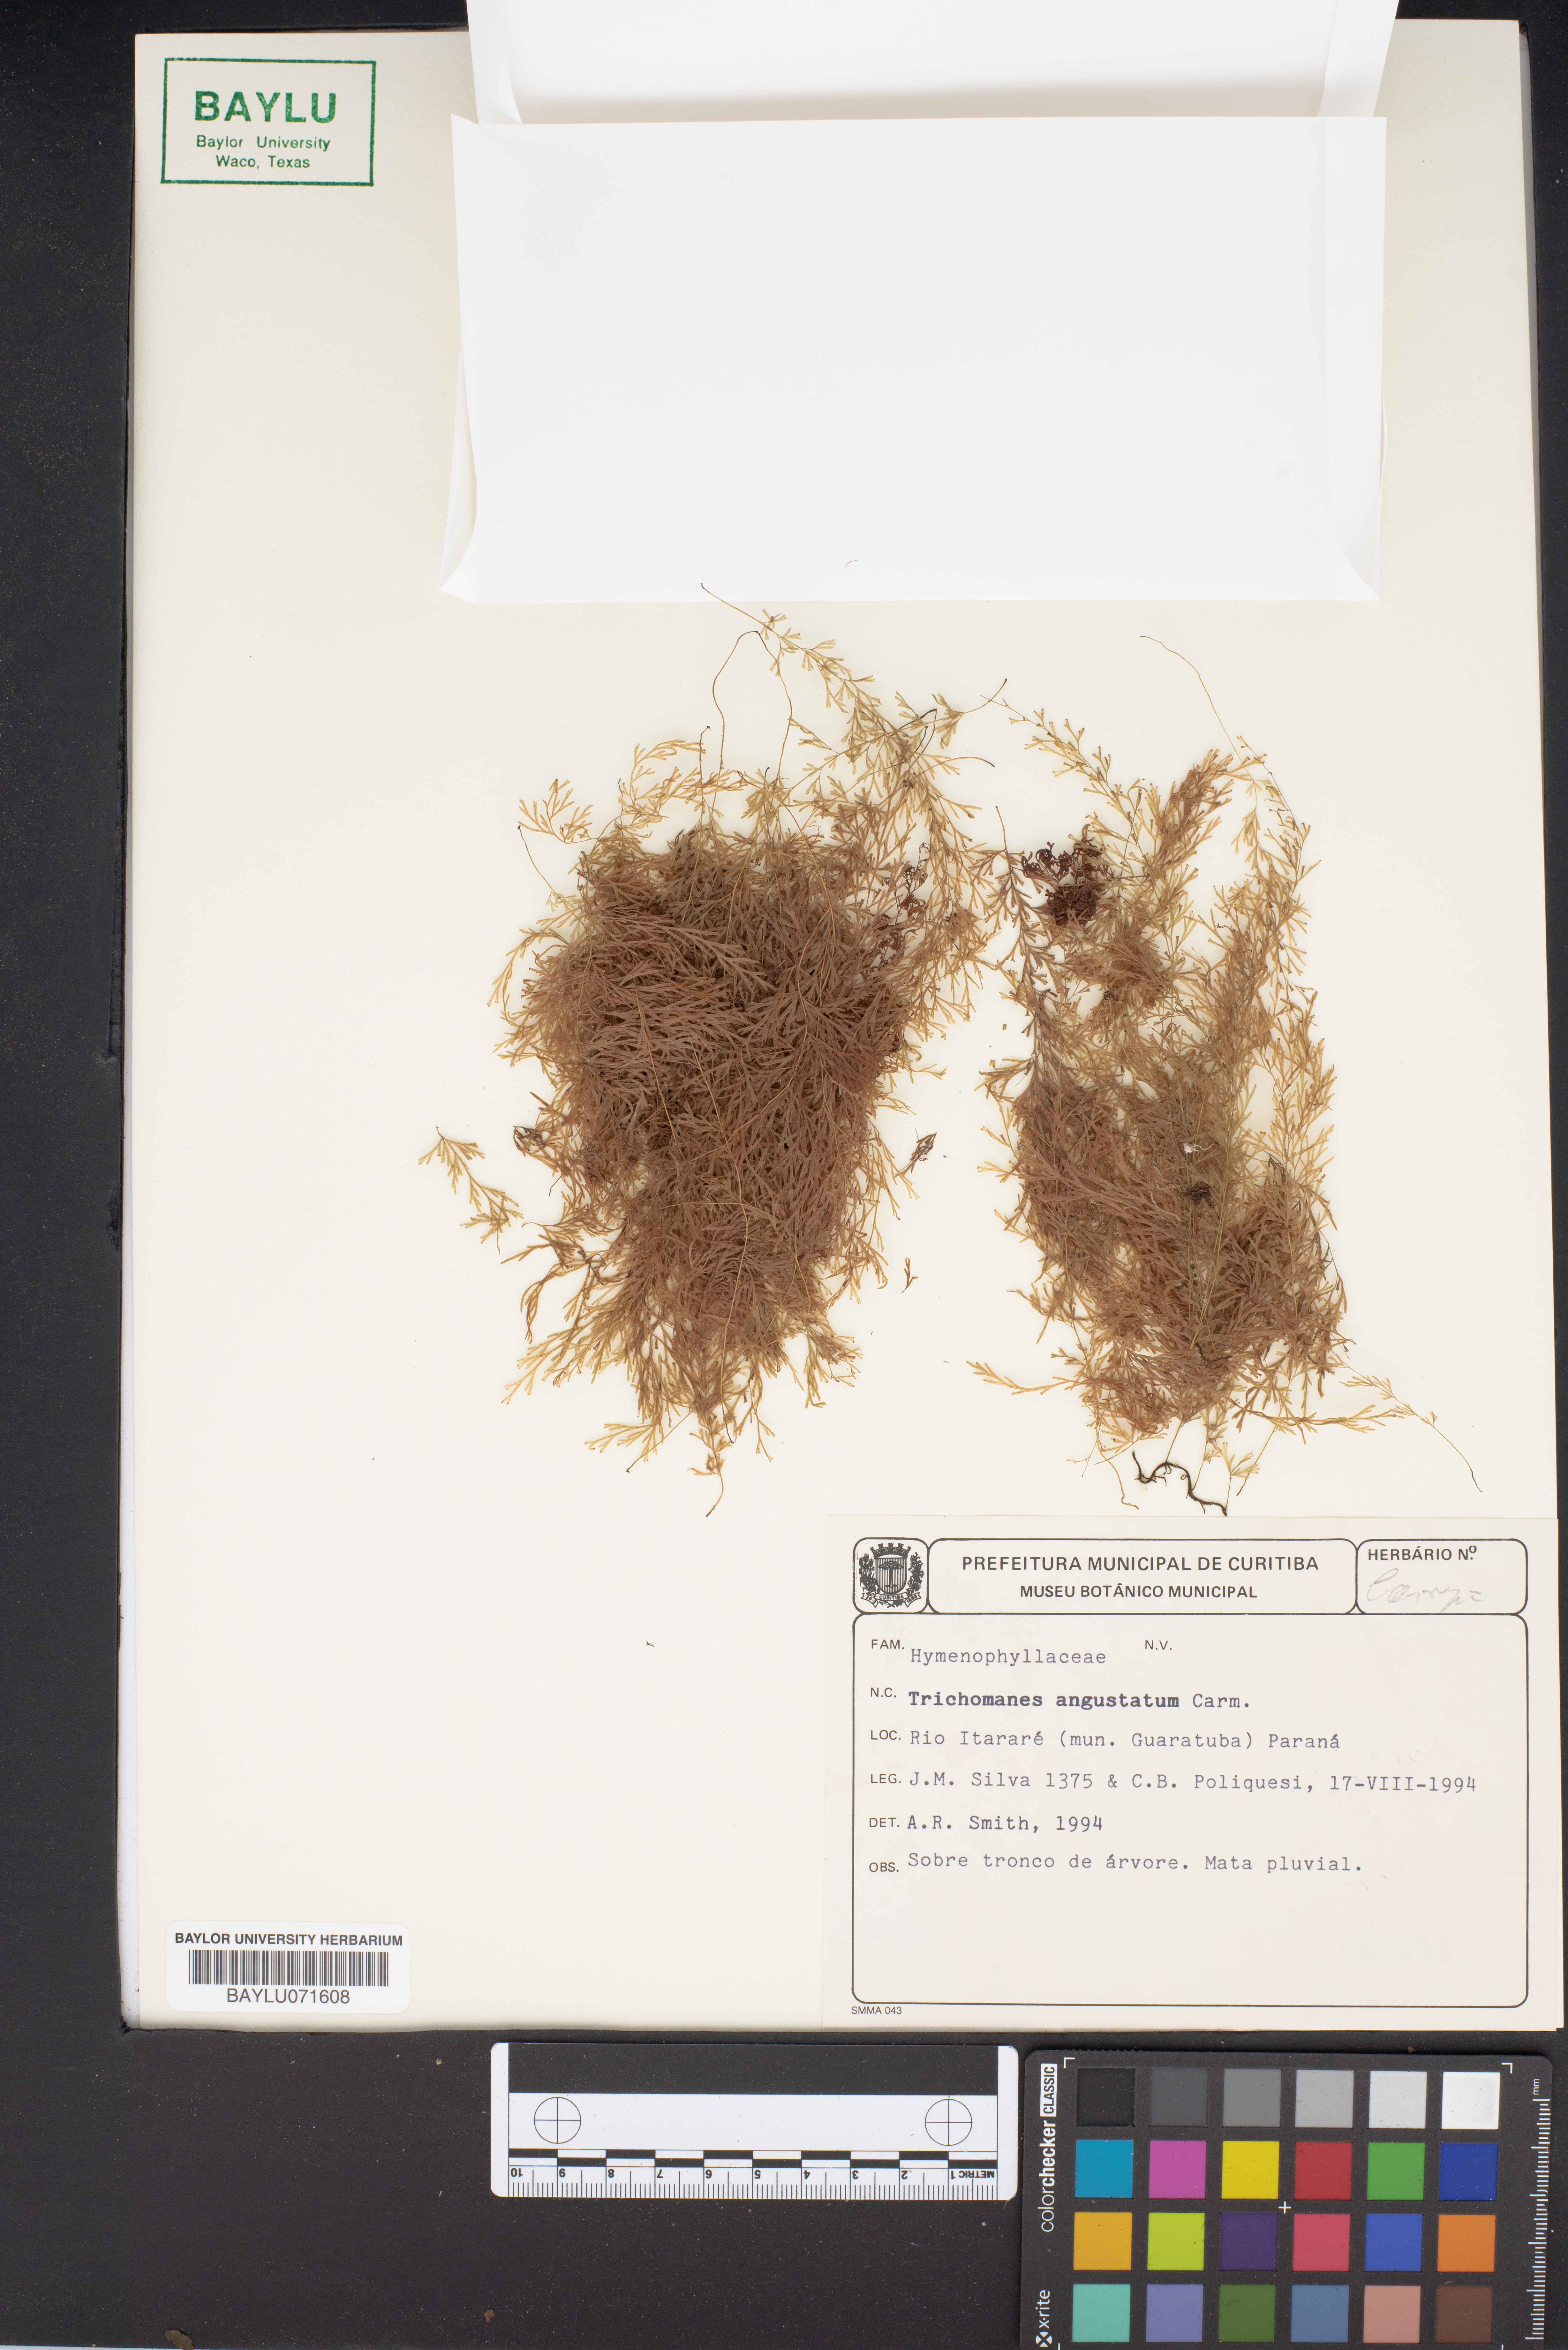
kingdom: Plantae
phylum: Tracheophyta
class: Polypodiopsida
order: Hymenophyllales
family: Hymenophyllaceae
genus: Trichomanes
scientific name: Trichomanes angustatum
